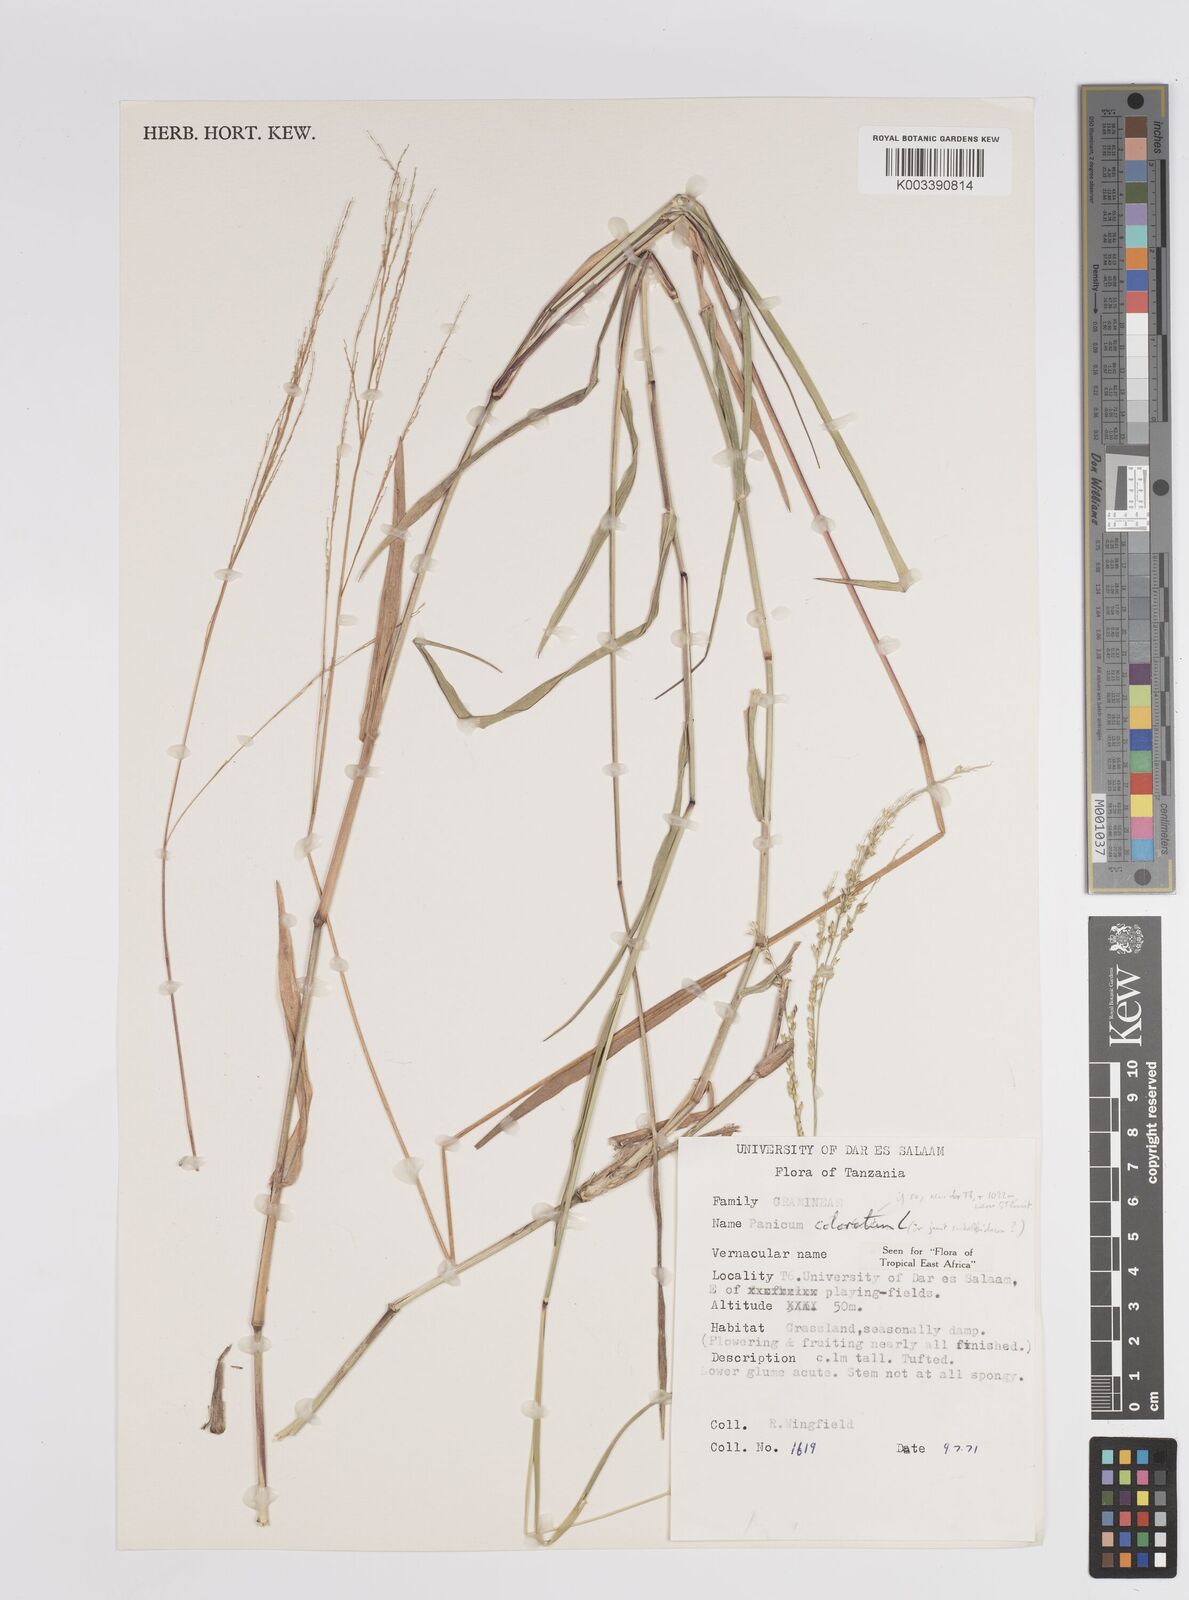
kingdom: Plantae
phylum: Tracheophyta
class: Liliopsida
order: Poales
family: Poaceae
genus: Panicum
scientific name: Panicum coloratum
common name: Kleingrass
